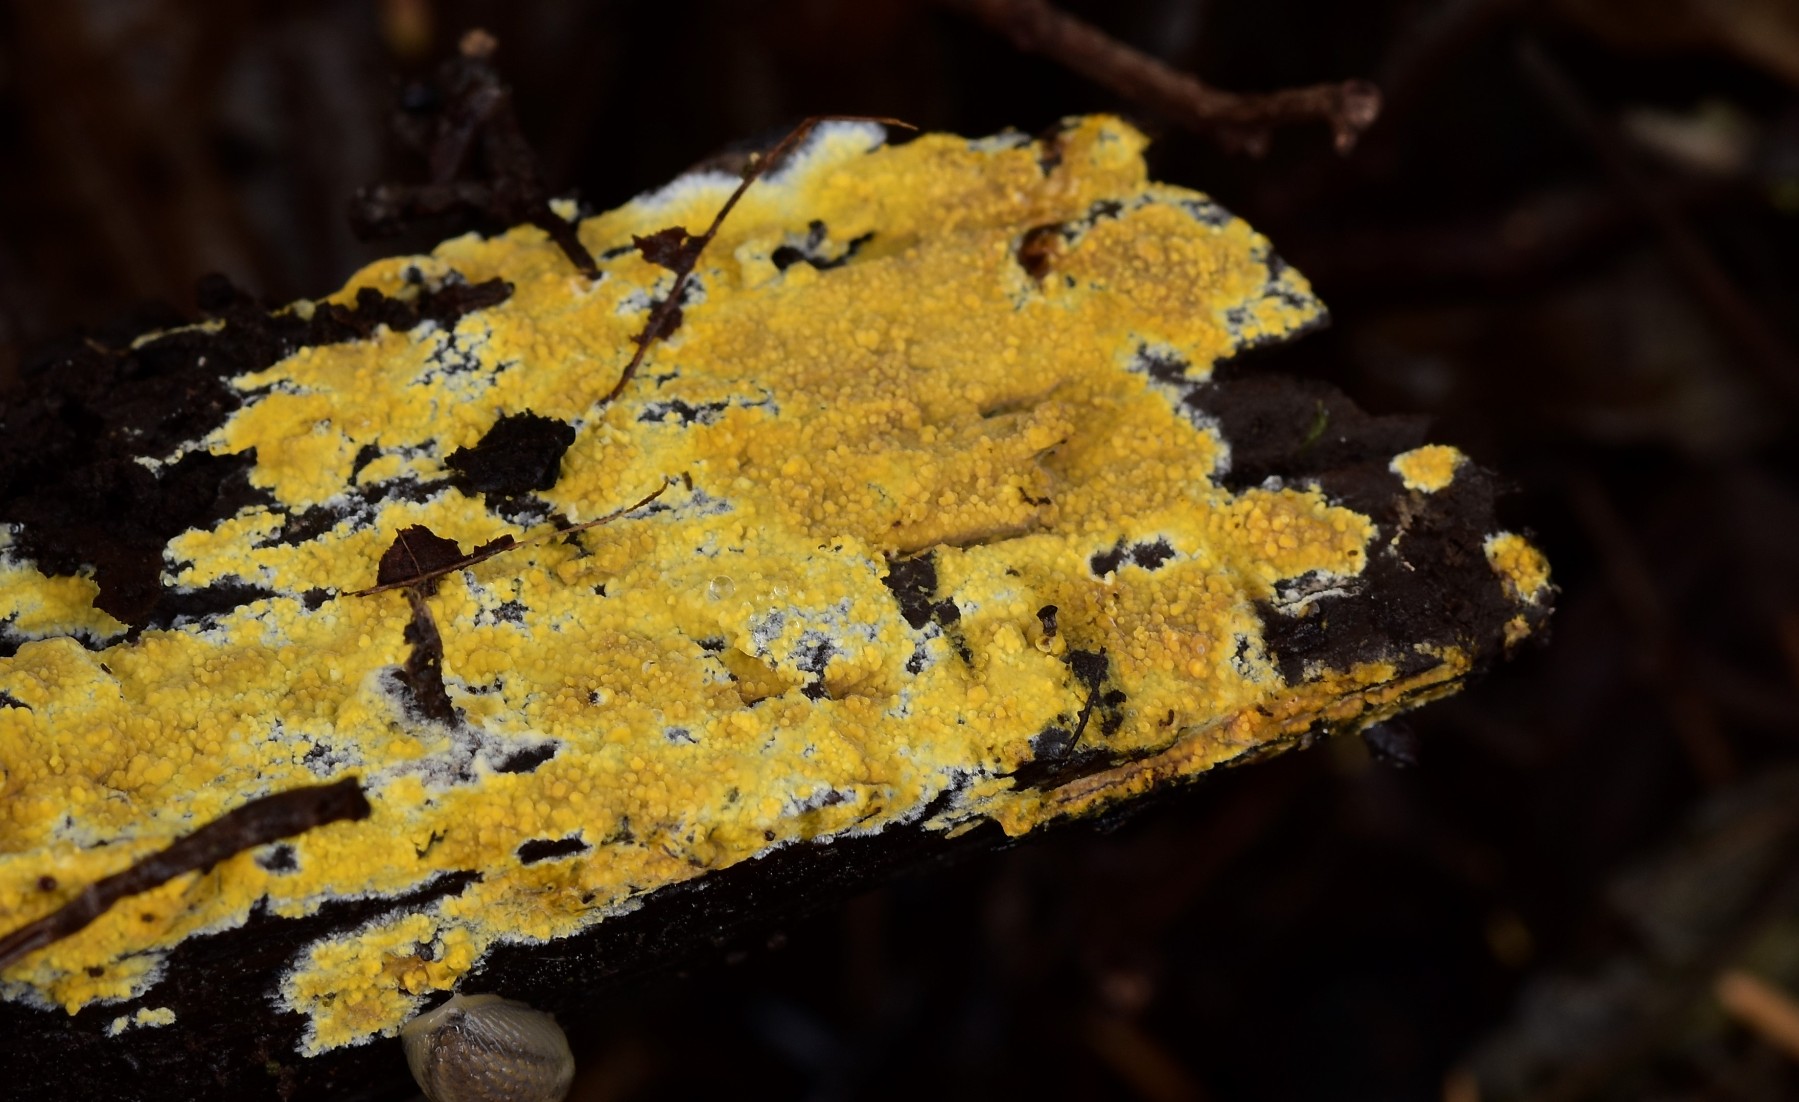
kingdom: Fungi
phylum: Basidiomycota
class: Agaricomycetes
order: Polyporales
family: Meruliaceae
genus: Phlebiodontia
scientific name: Phlebiodontia subochracea
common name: svovl-åresvamp
